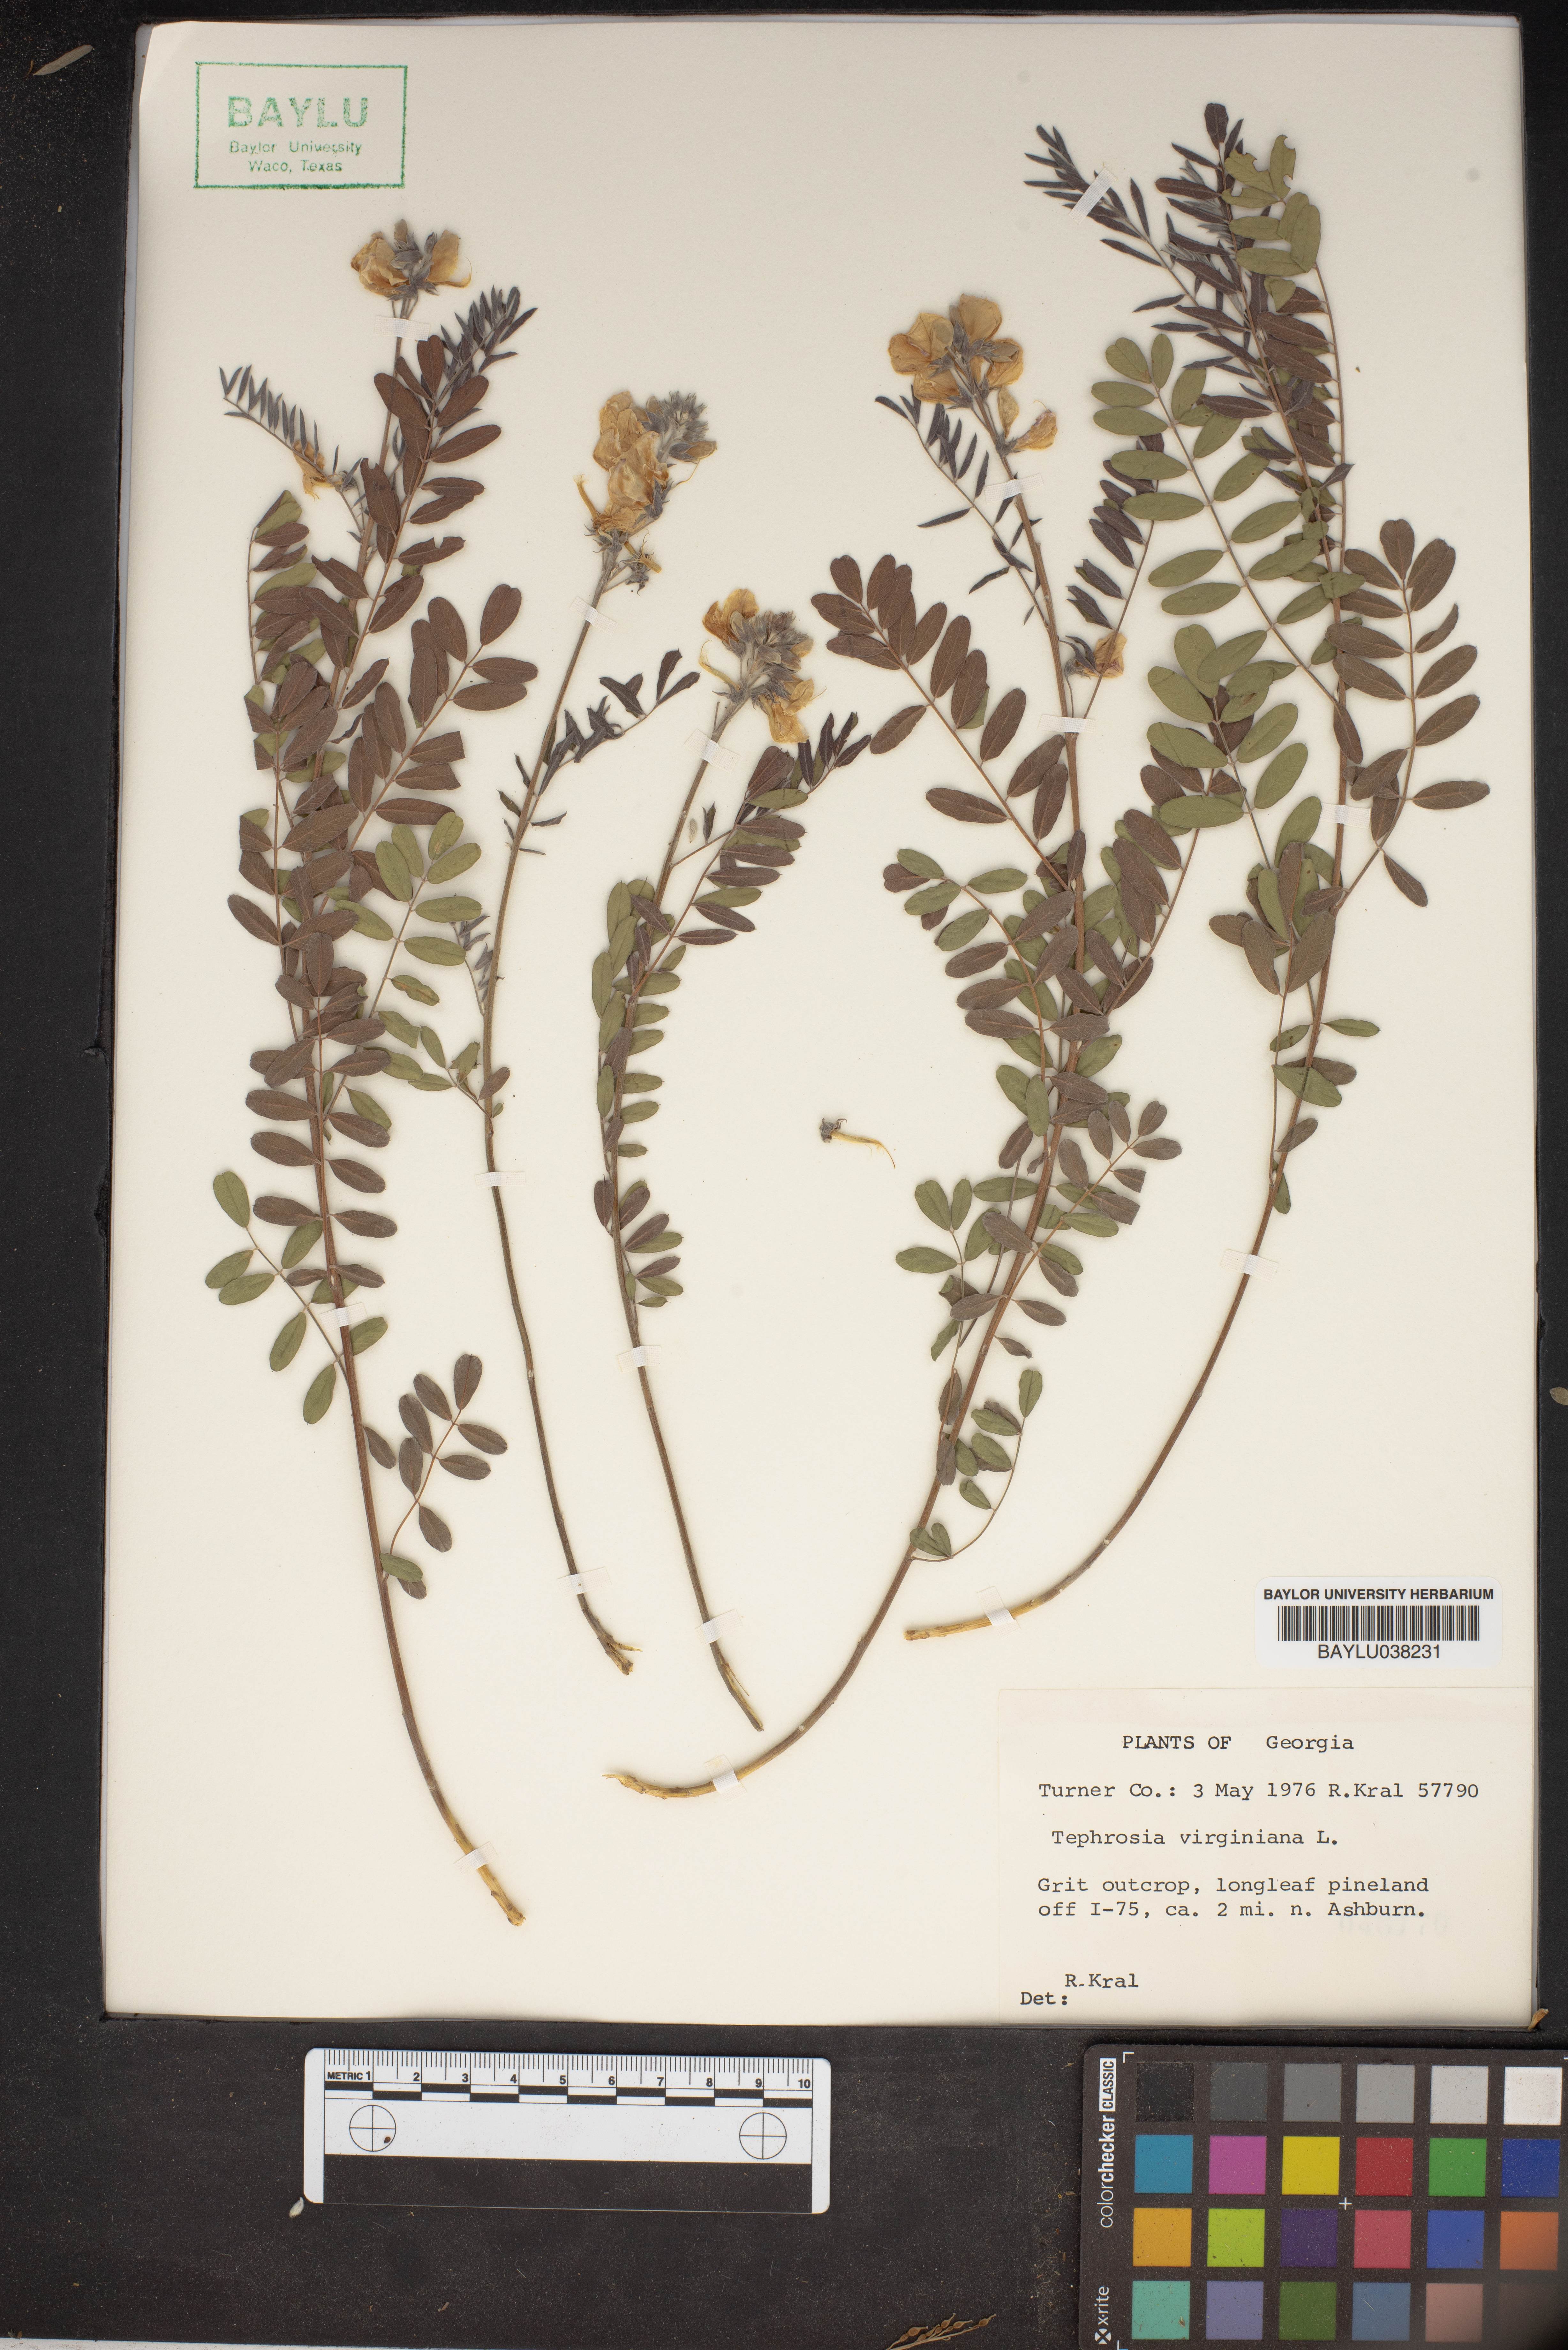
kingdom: Plantae
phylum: Tracheophyta
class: Magnoliopsida
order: Fabales
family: Fabaceae
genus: Tephrosia
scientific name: Tephrosia virginiana
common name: Rabbit-pea
